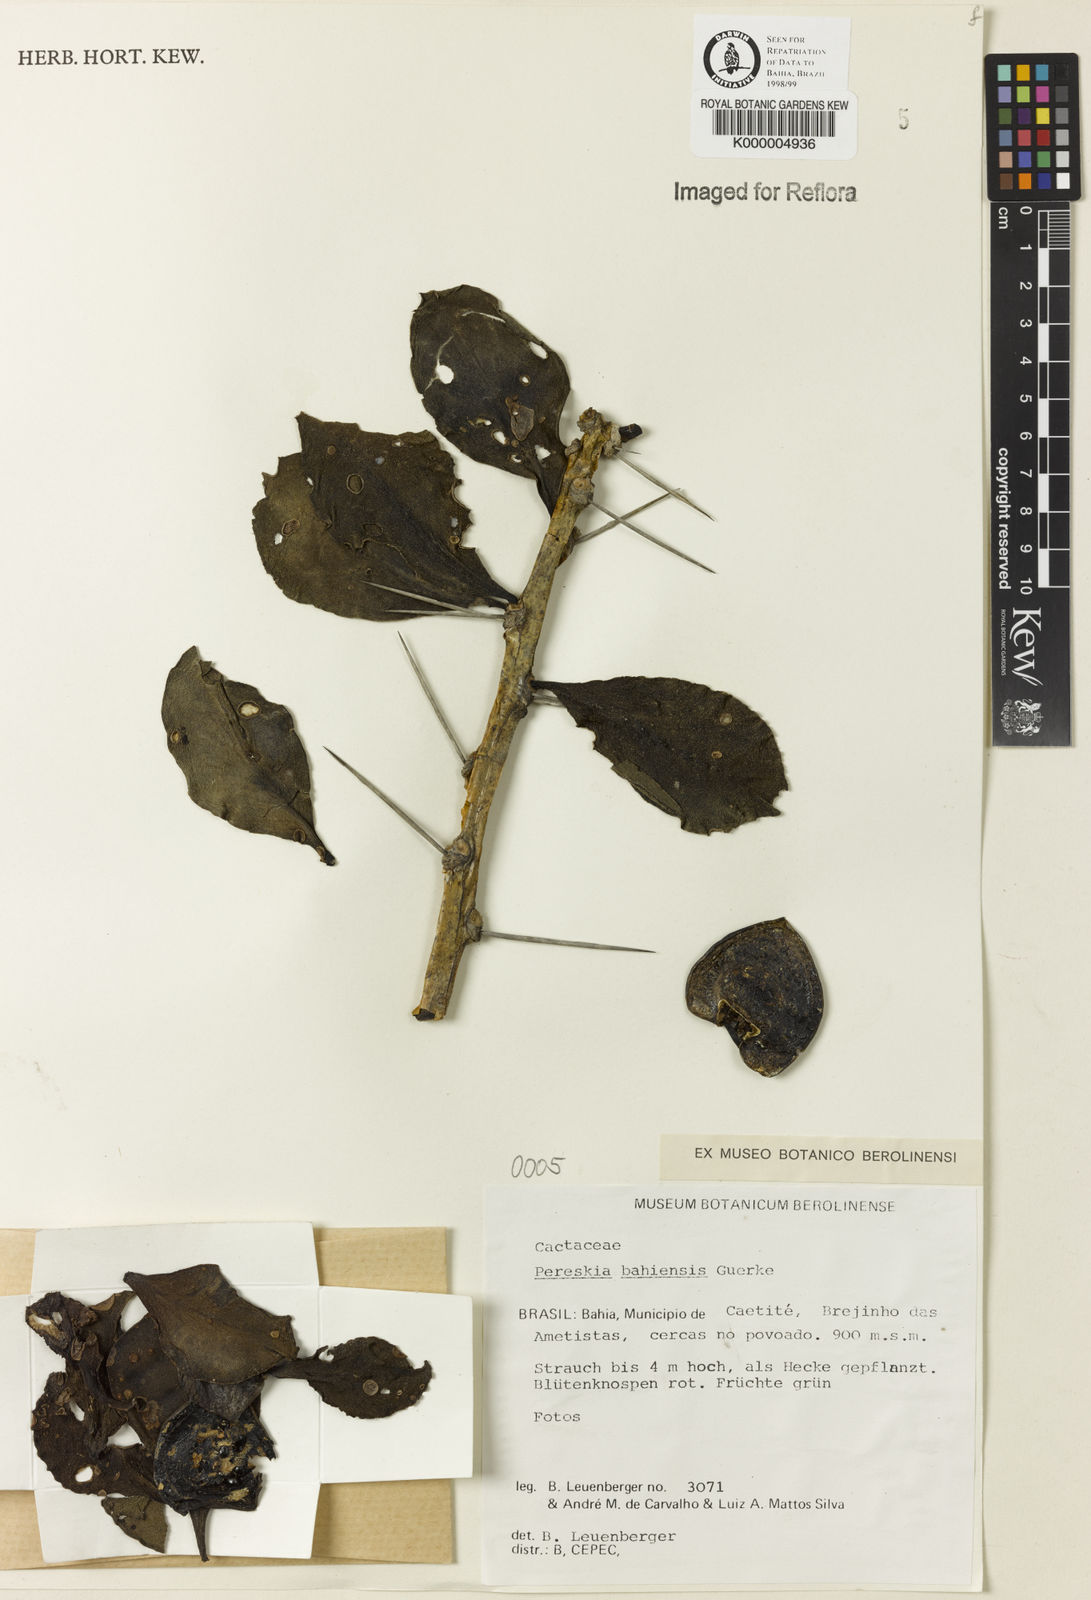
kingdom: Plantae
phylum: Tracheophyta
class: Magnoliopsida
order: Caryophyllales
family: Cactaceae
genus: Pereskia
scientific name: Pereskia
